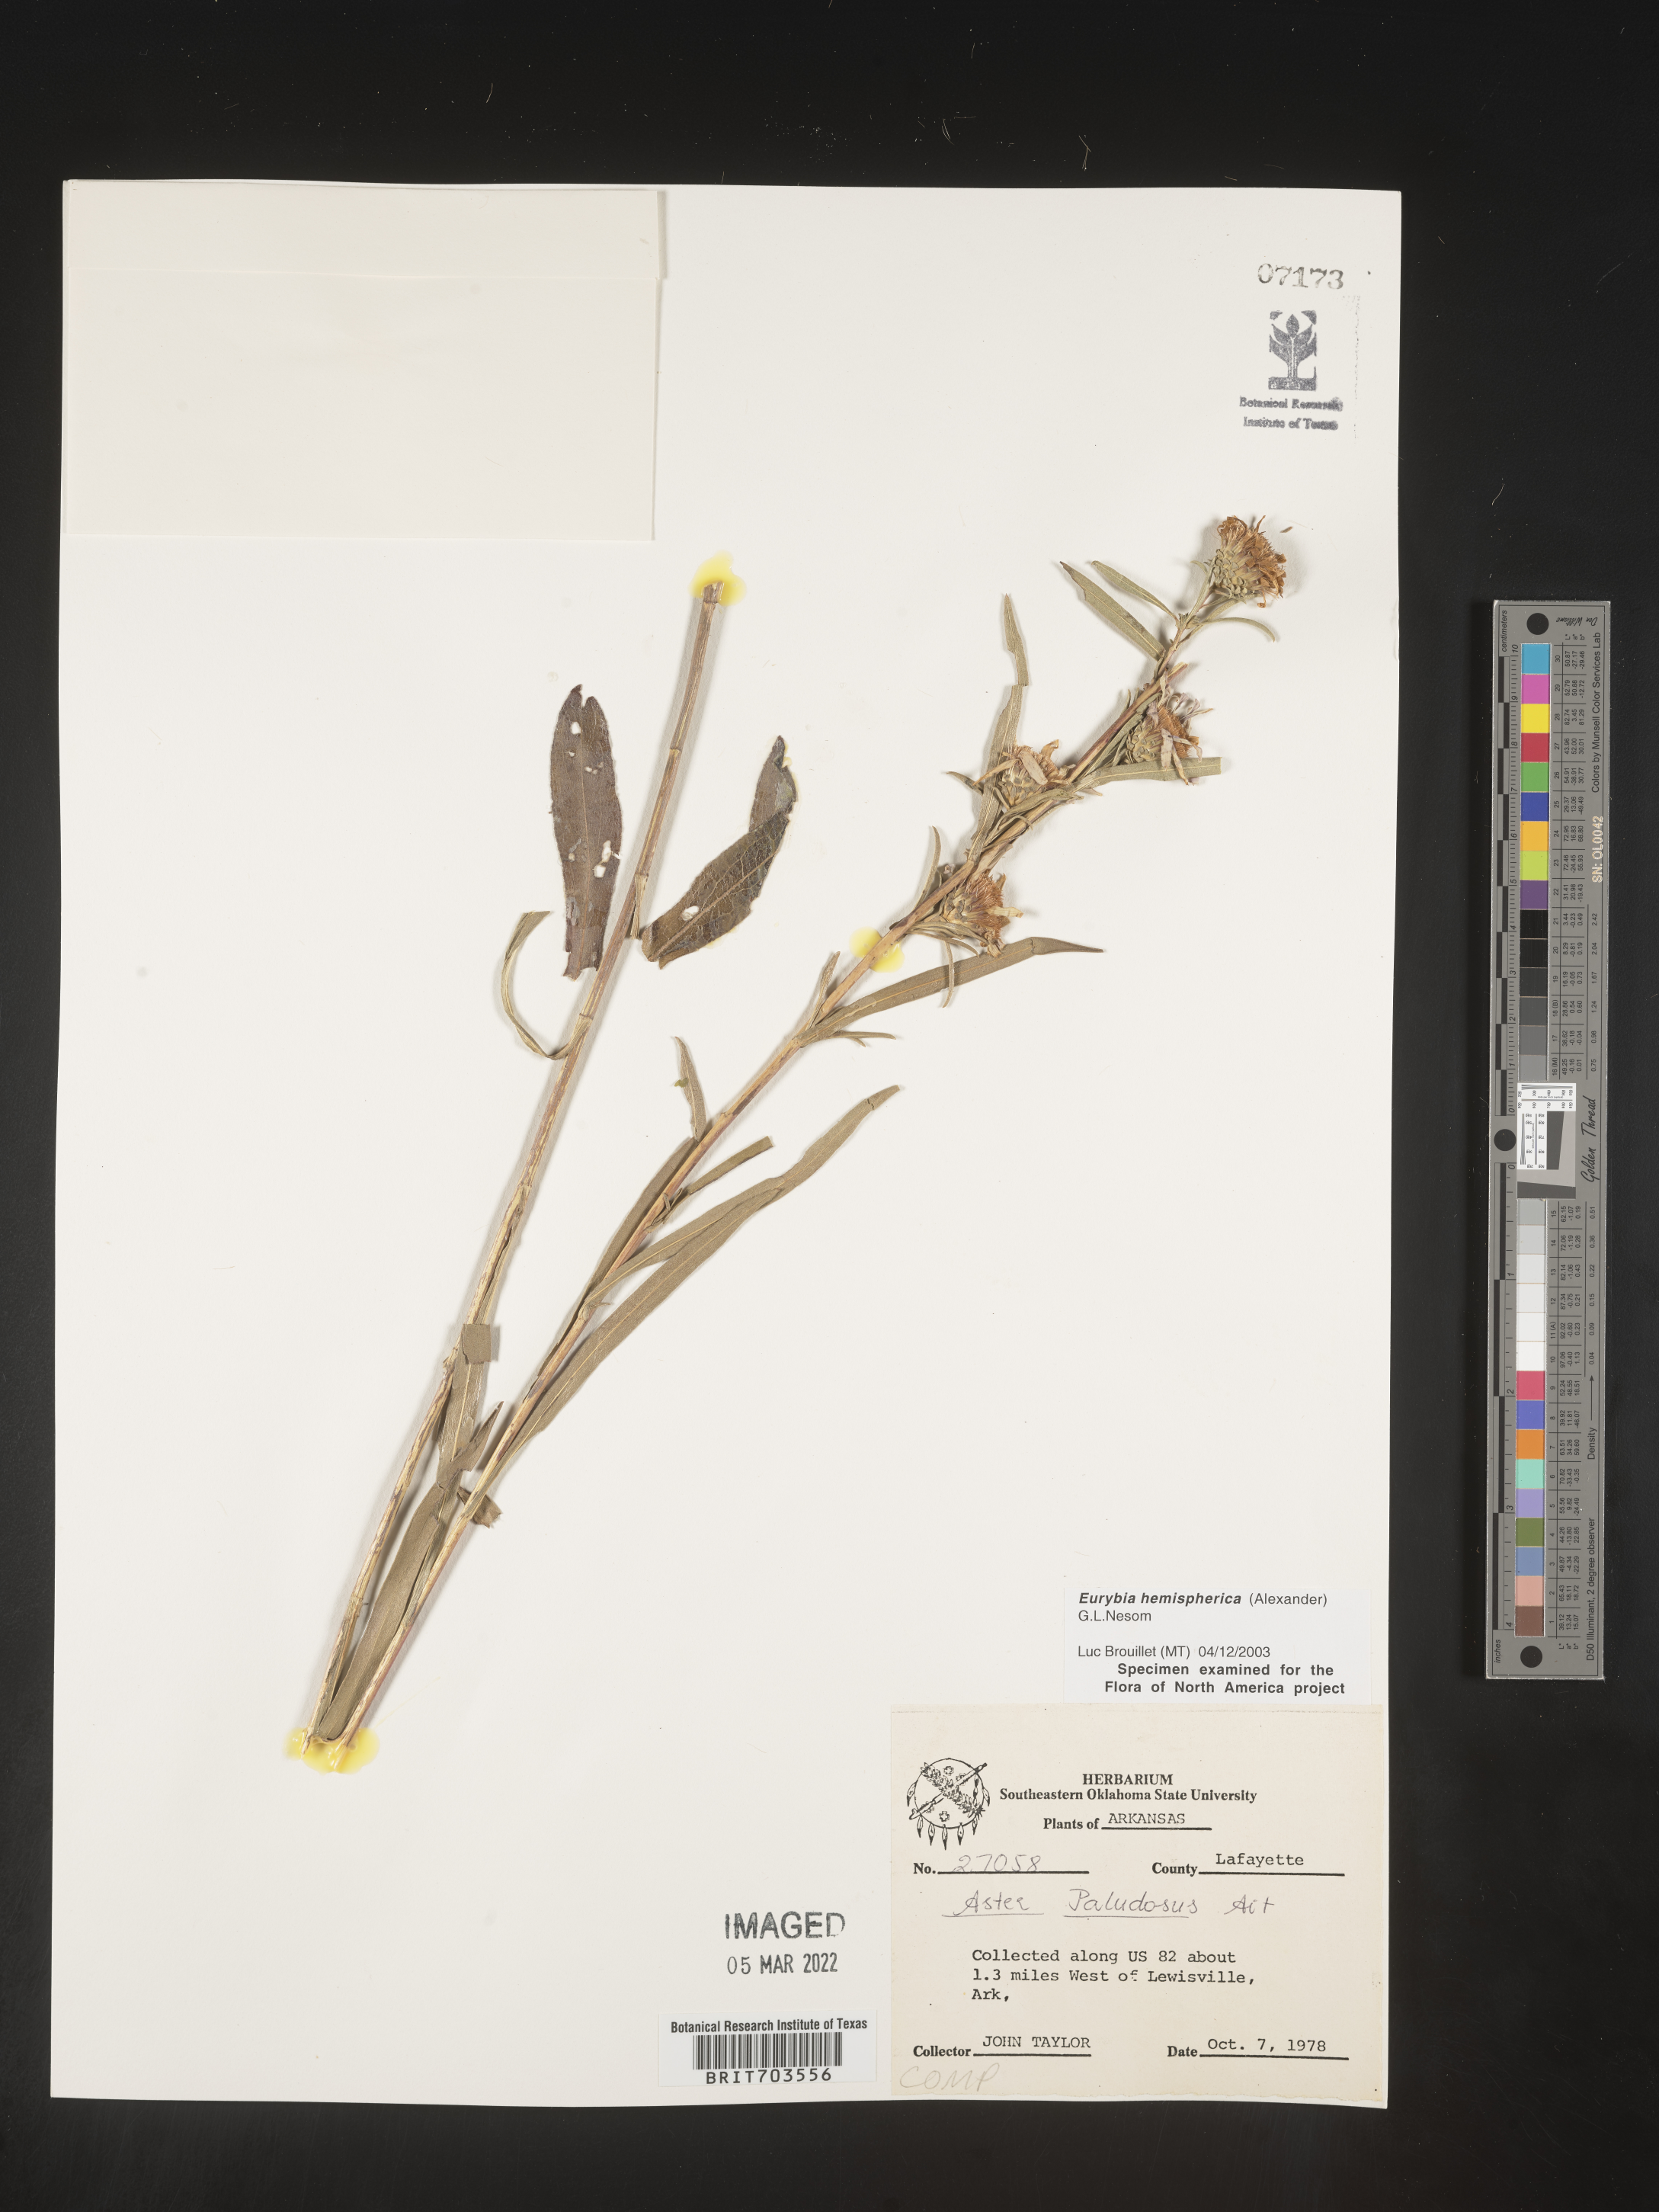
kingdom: Plantae
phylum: Tracheophyta
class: Magnoliopsida
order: Asterales
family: Asteraceae
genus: Eurybia
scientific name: Eurybia hemispherica
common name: Showy aster
